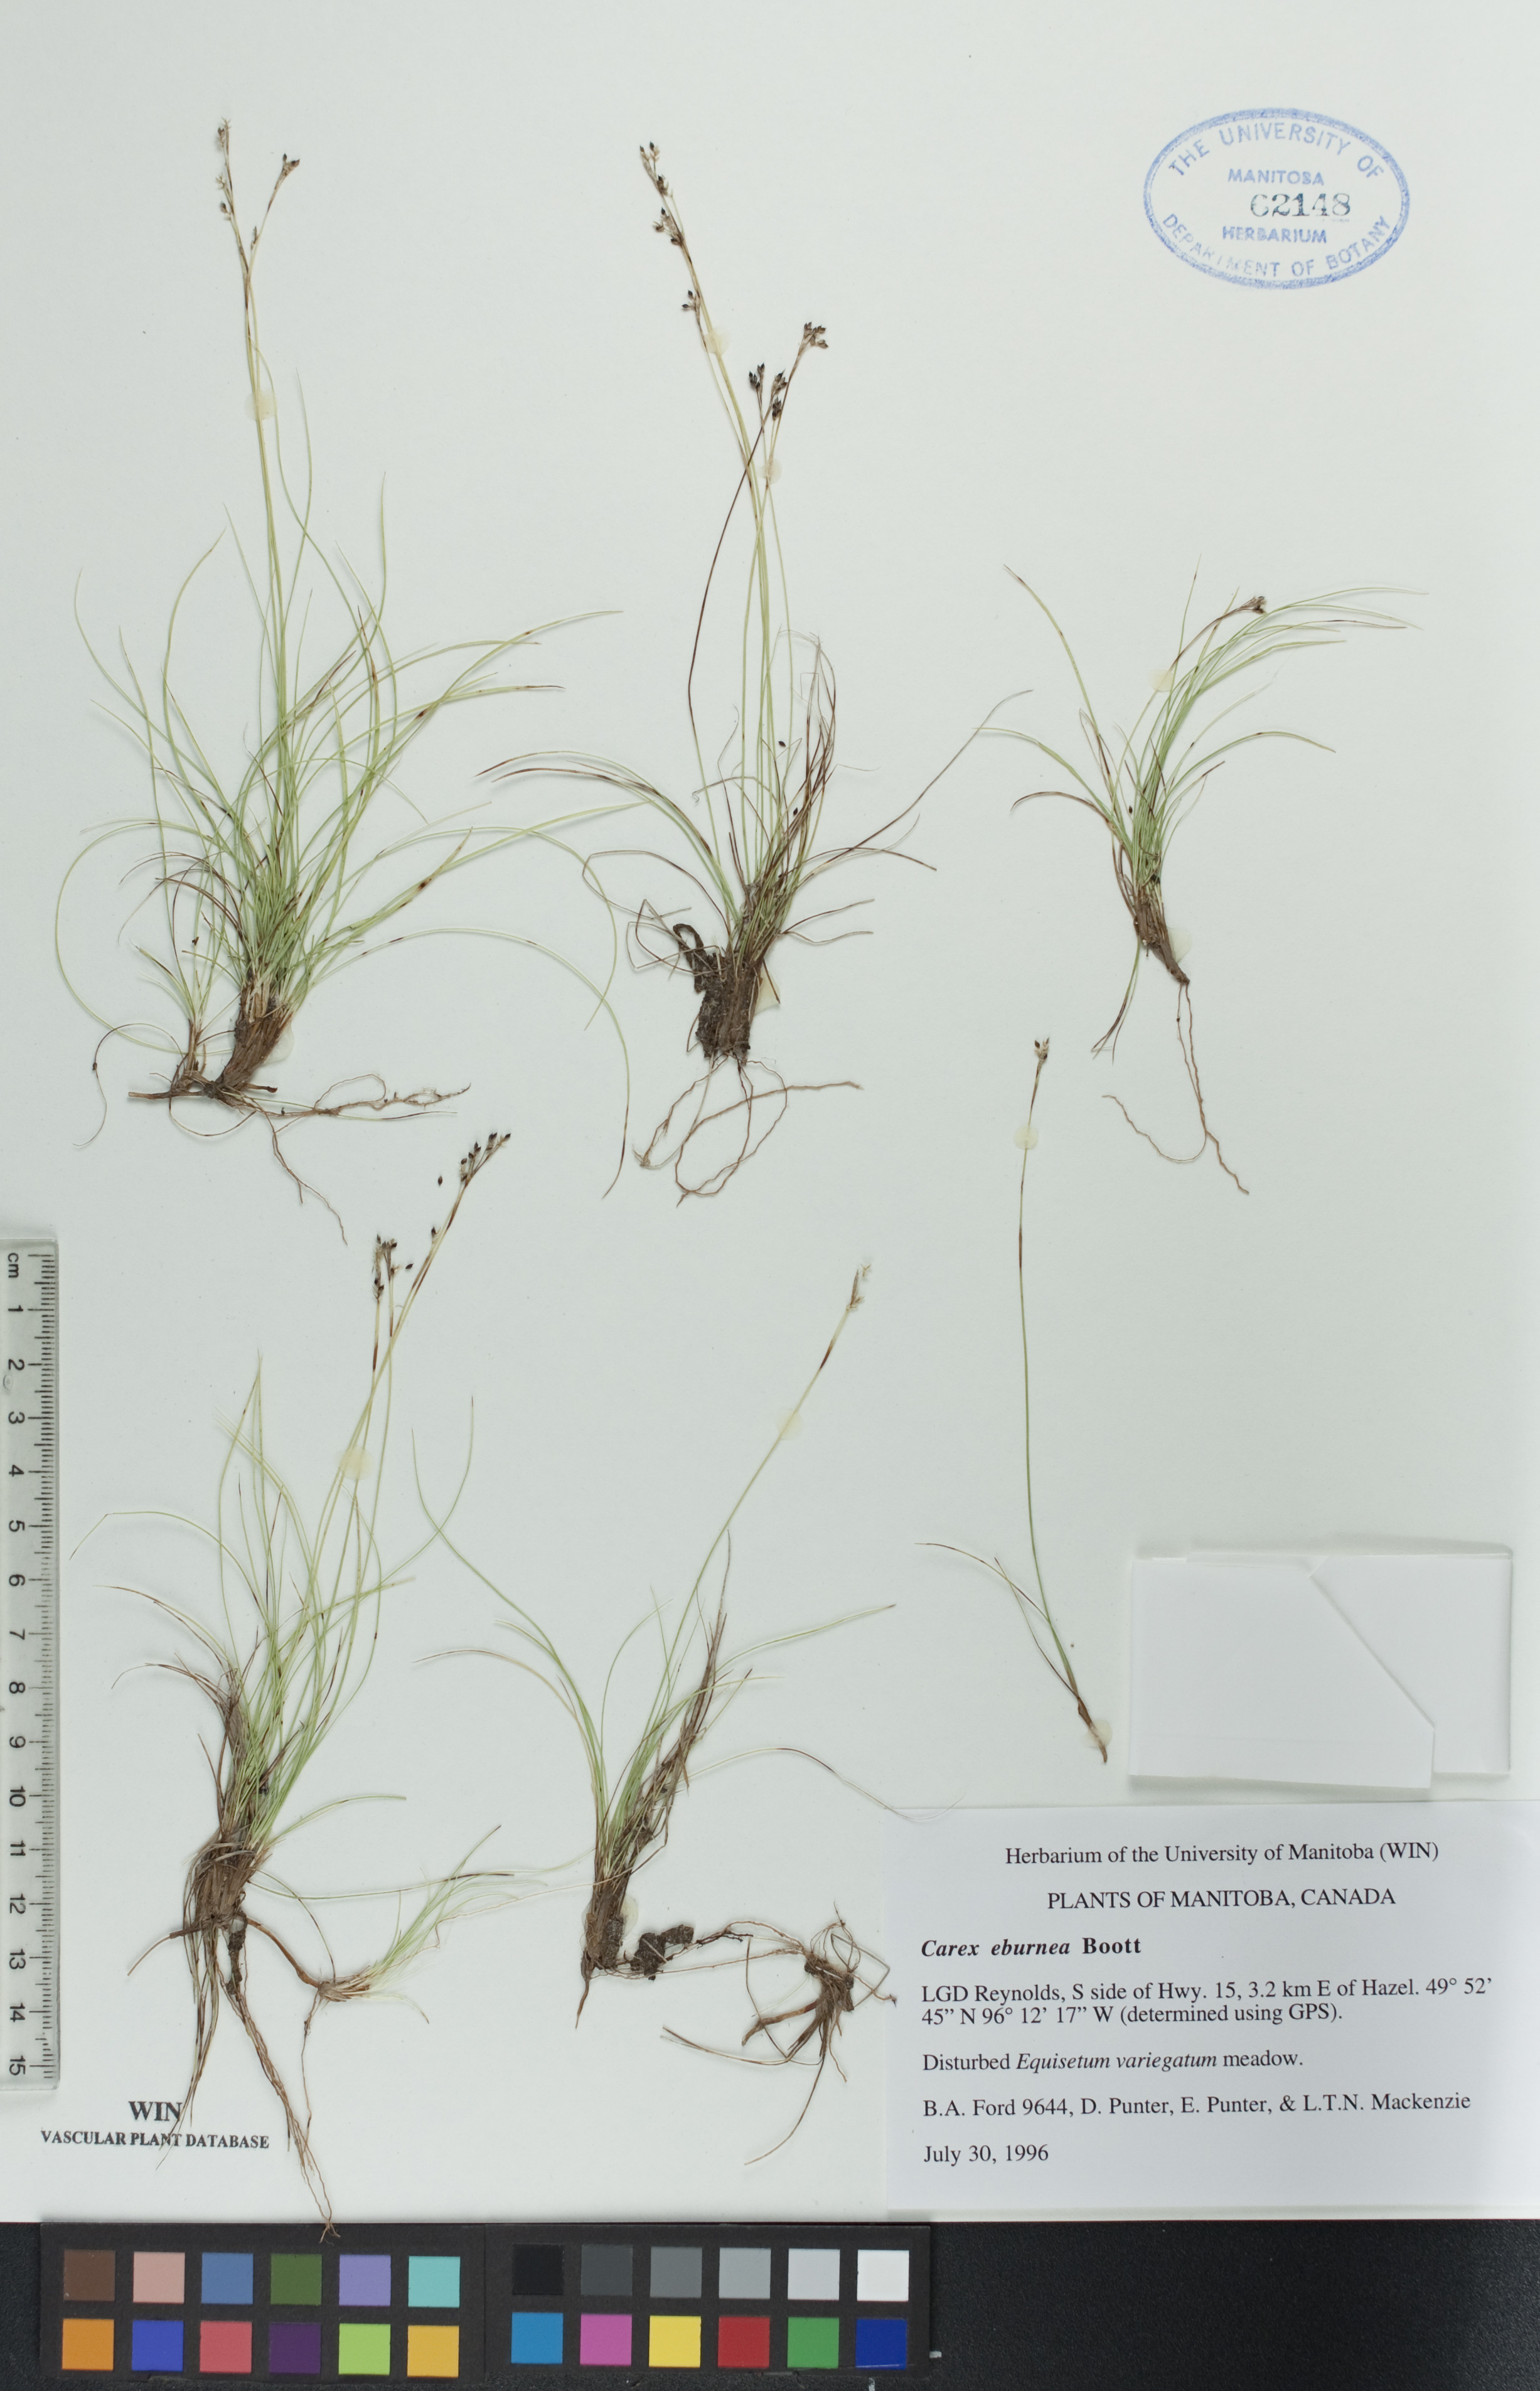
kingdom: Plantae
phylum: Tracheophyta
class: Liliopsida
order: Poales
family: Cyperaceae
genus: Carex
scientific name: Carex eburnea
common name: Bristle-leaved sedge
